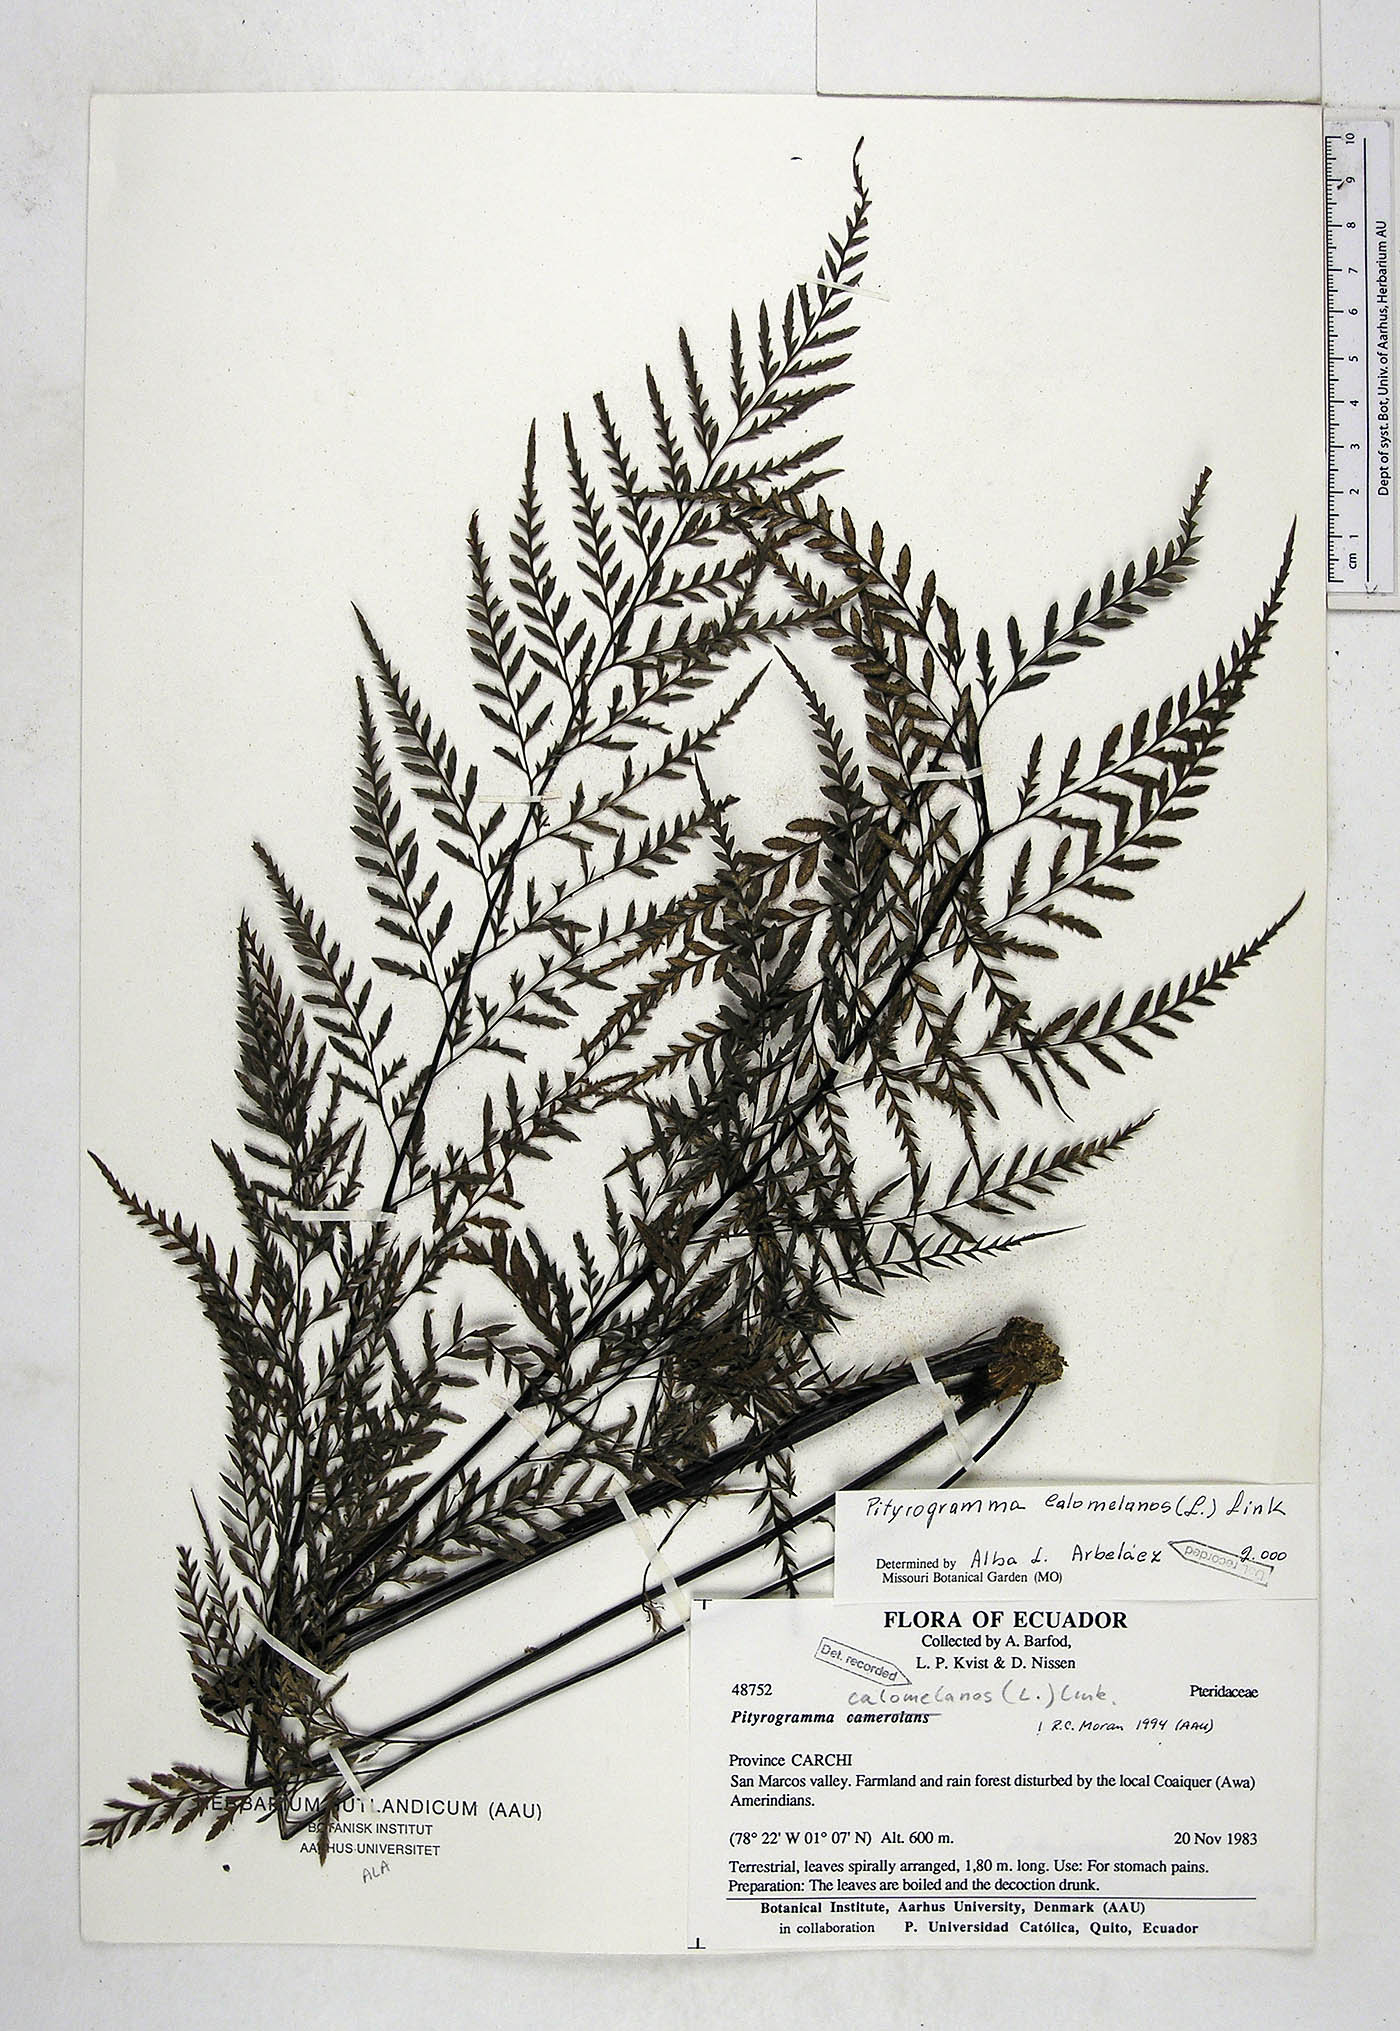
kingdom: Plantae
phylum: Tracheophyta
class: Polypodiopsida
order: Polypodiales
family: Pteridaceae
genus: Pityrogramma
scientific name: Pityrogramma calomelanos
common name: Dixie silverback fern
